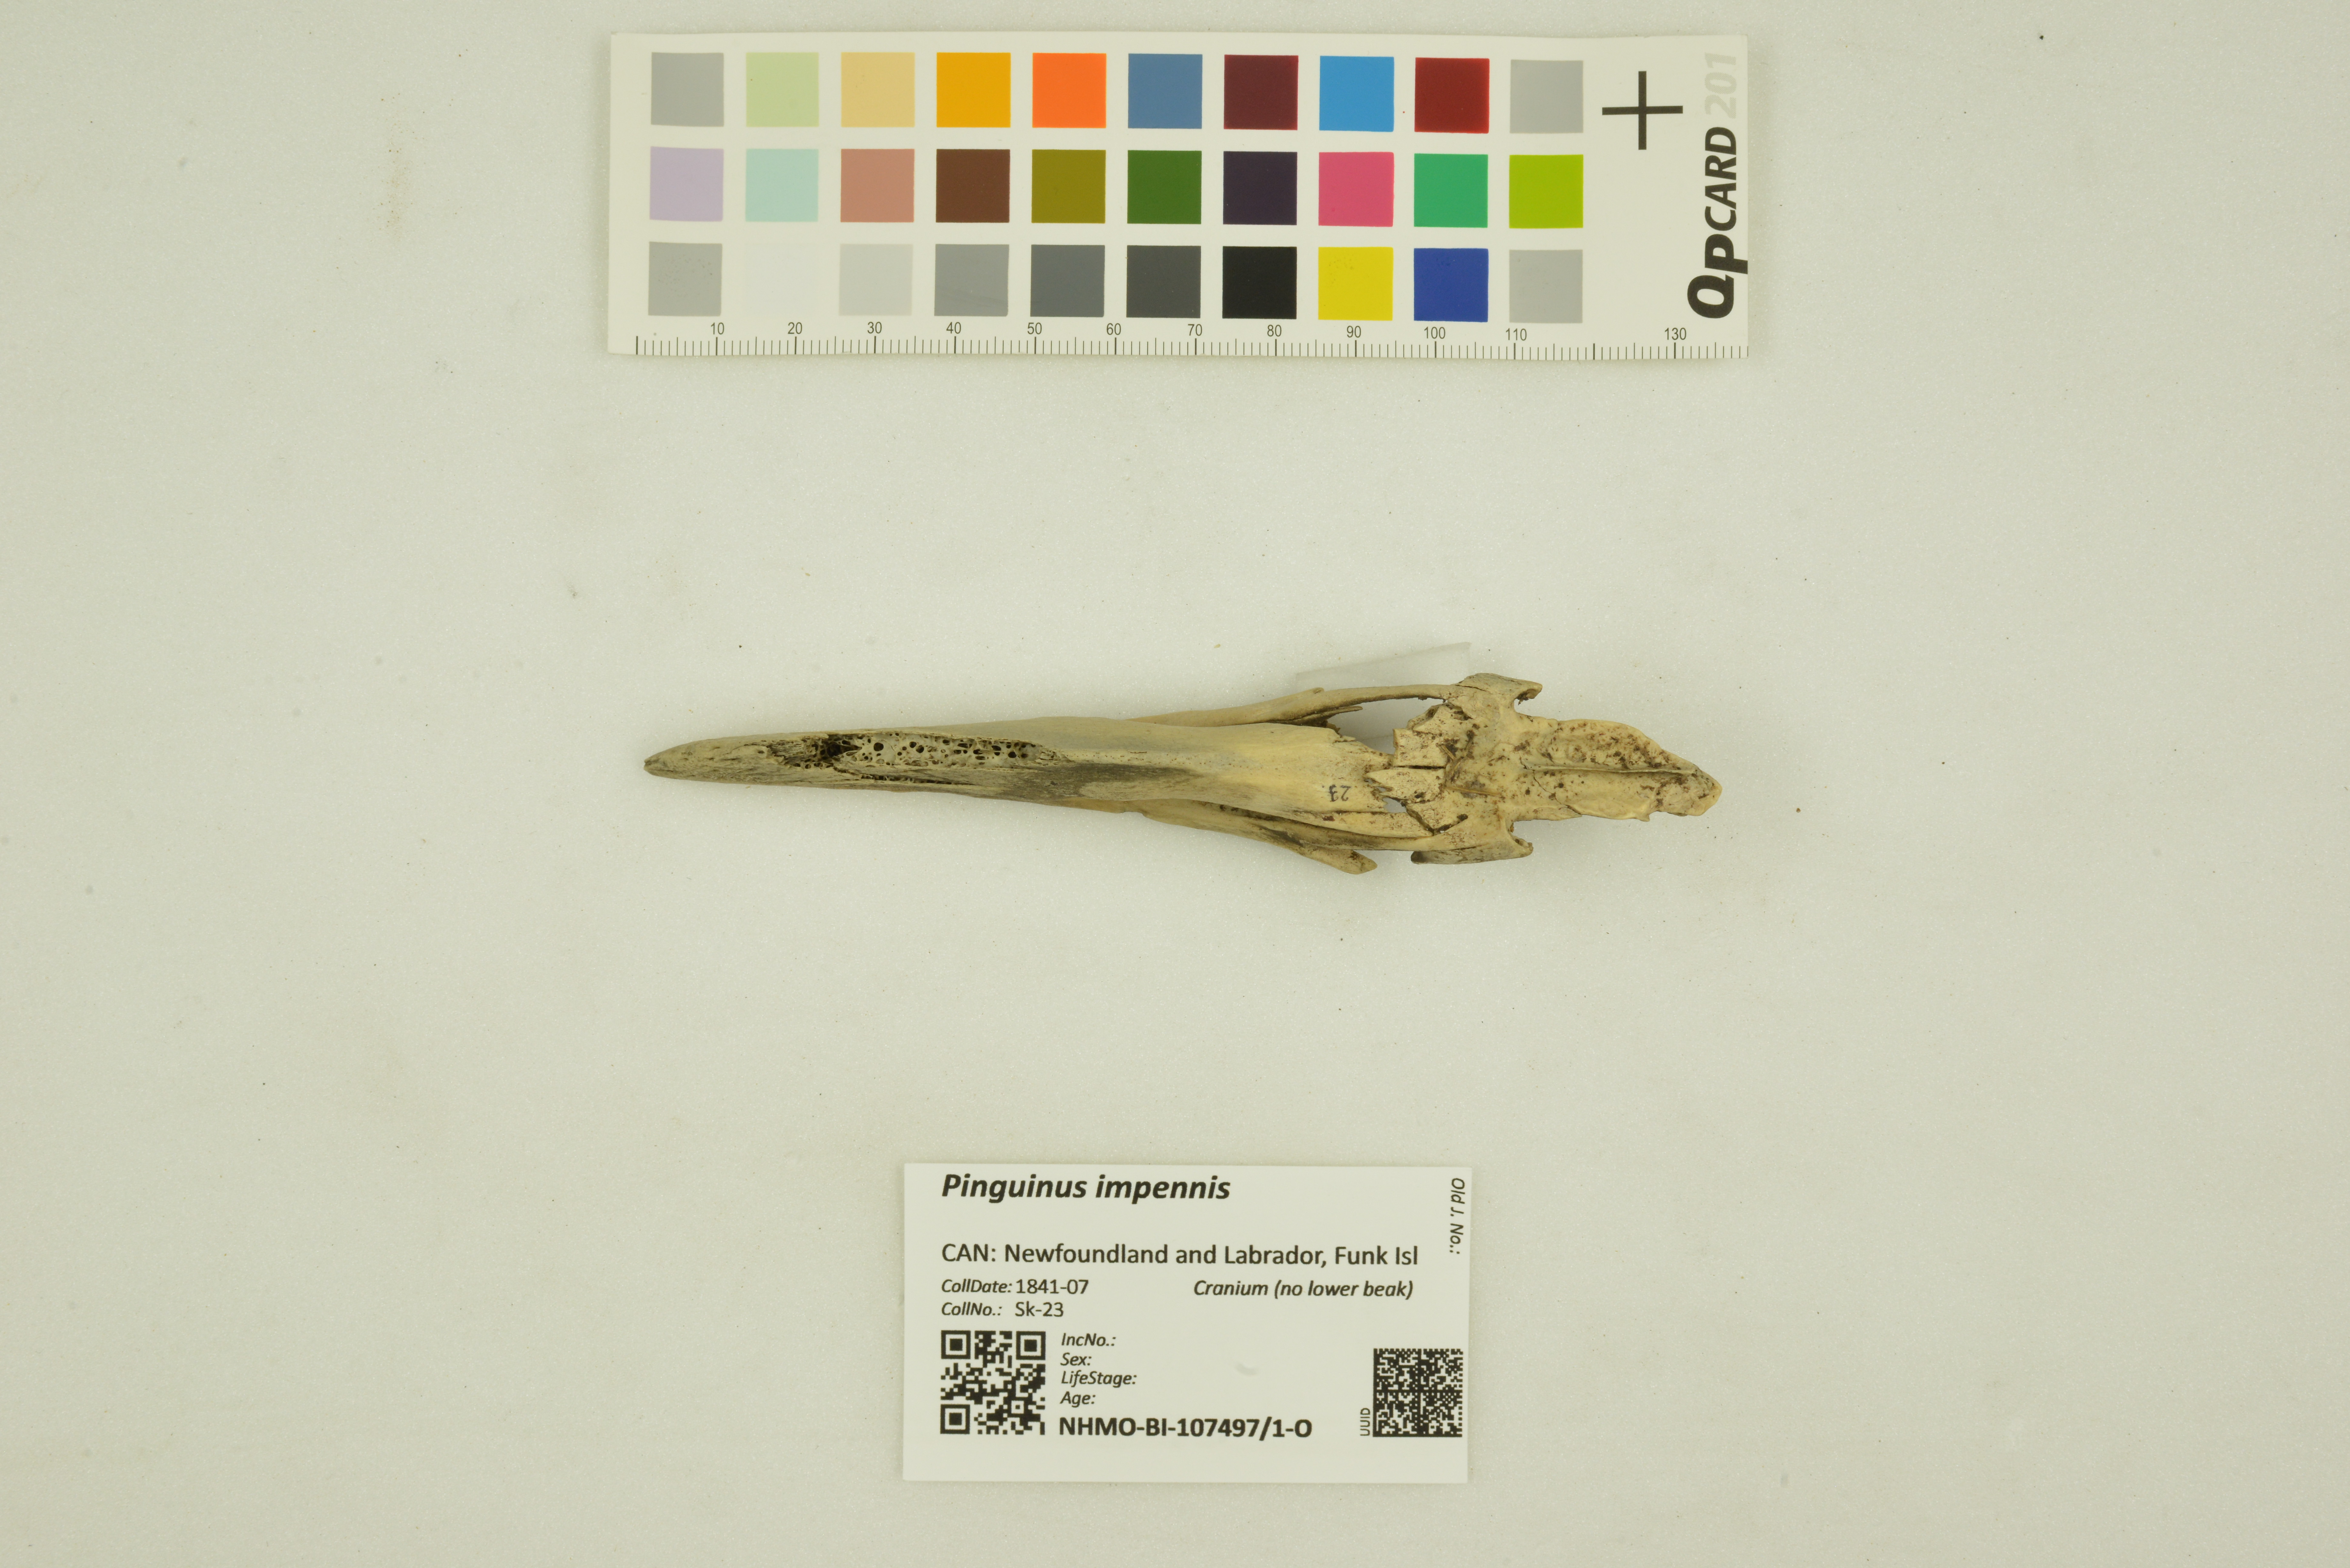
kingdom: Animalia
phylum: Chordata
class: Aves
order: Charadriiformes
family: Alcidae
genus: Pinguinus
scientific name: Pinguinus impennis
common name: Great auk
